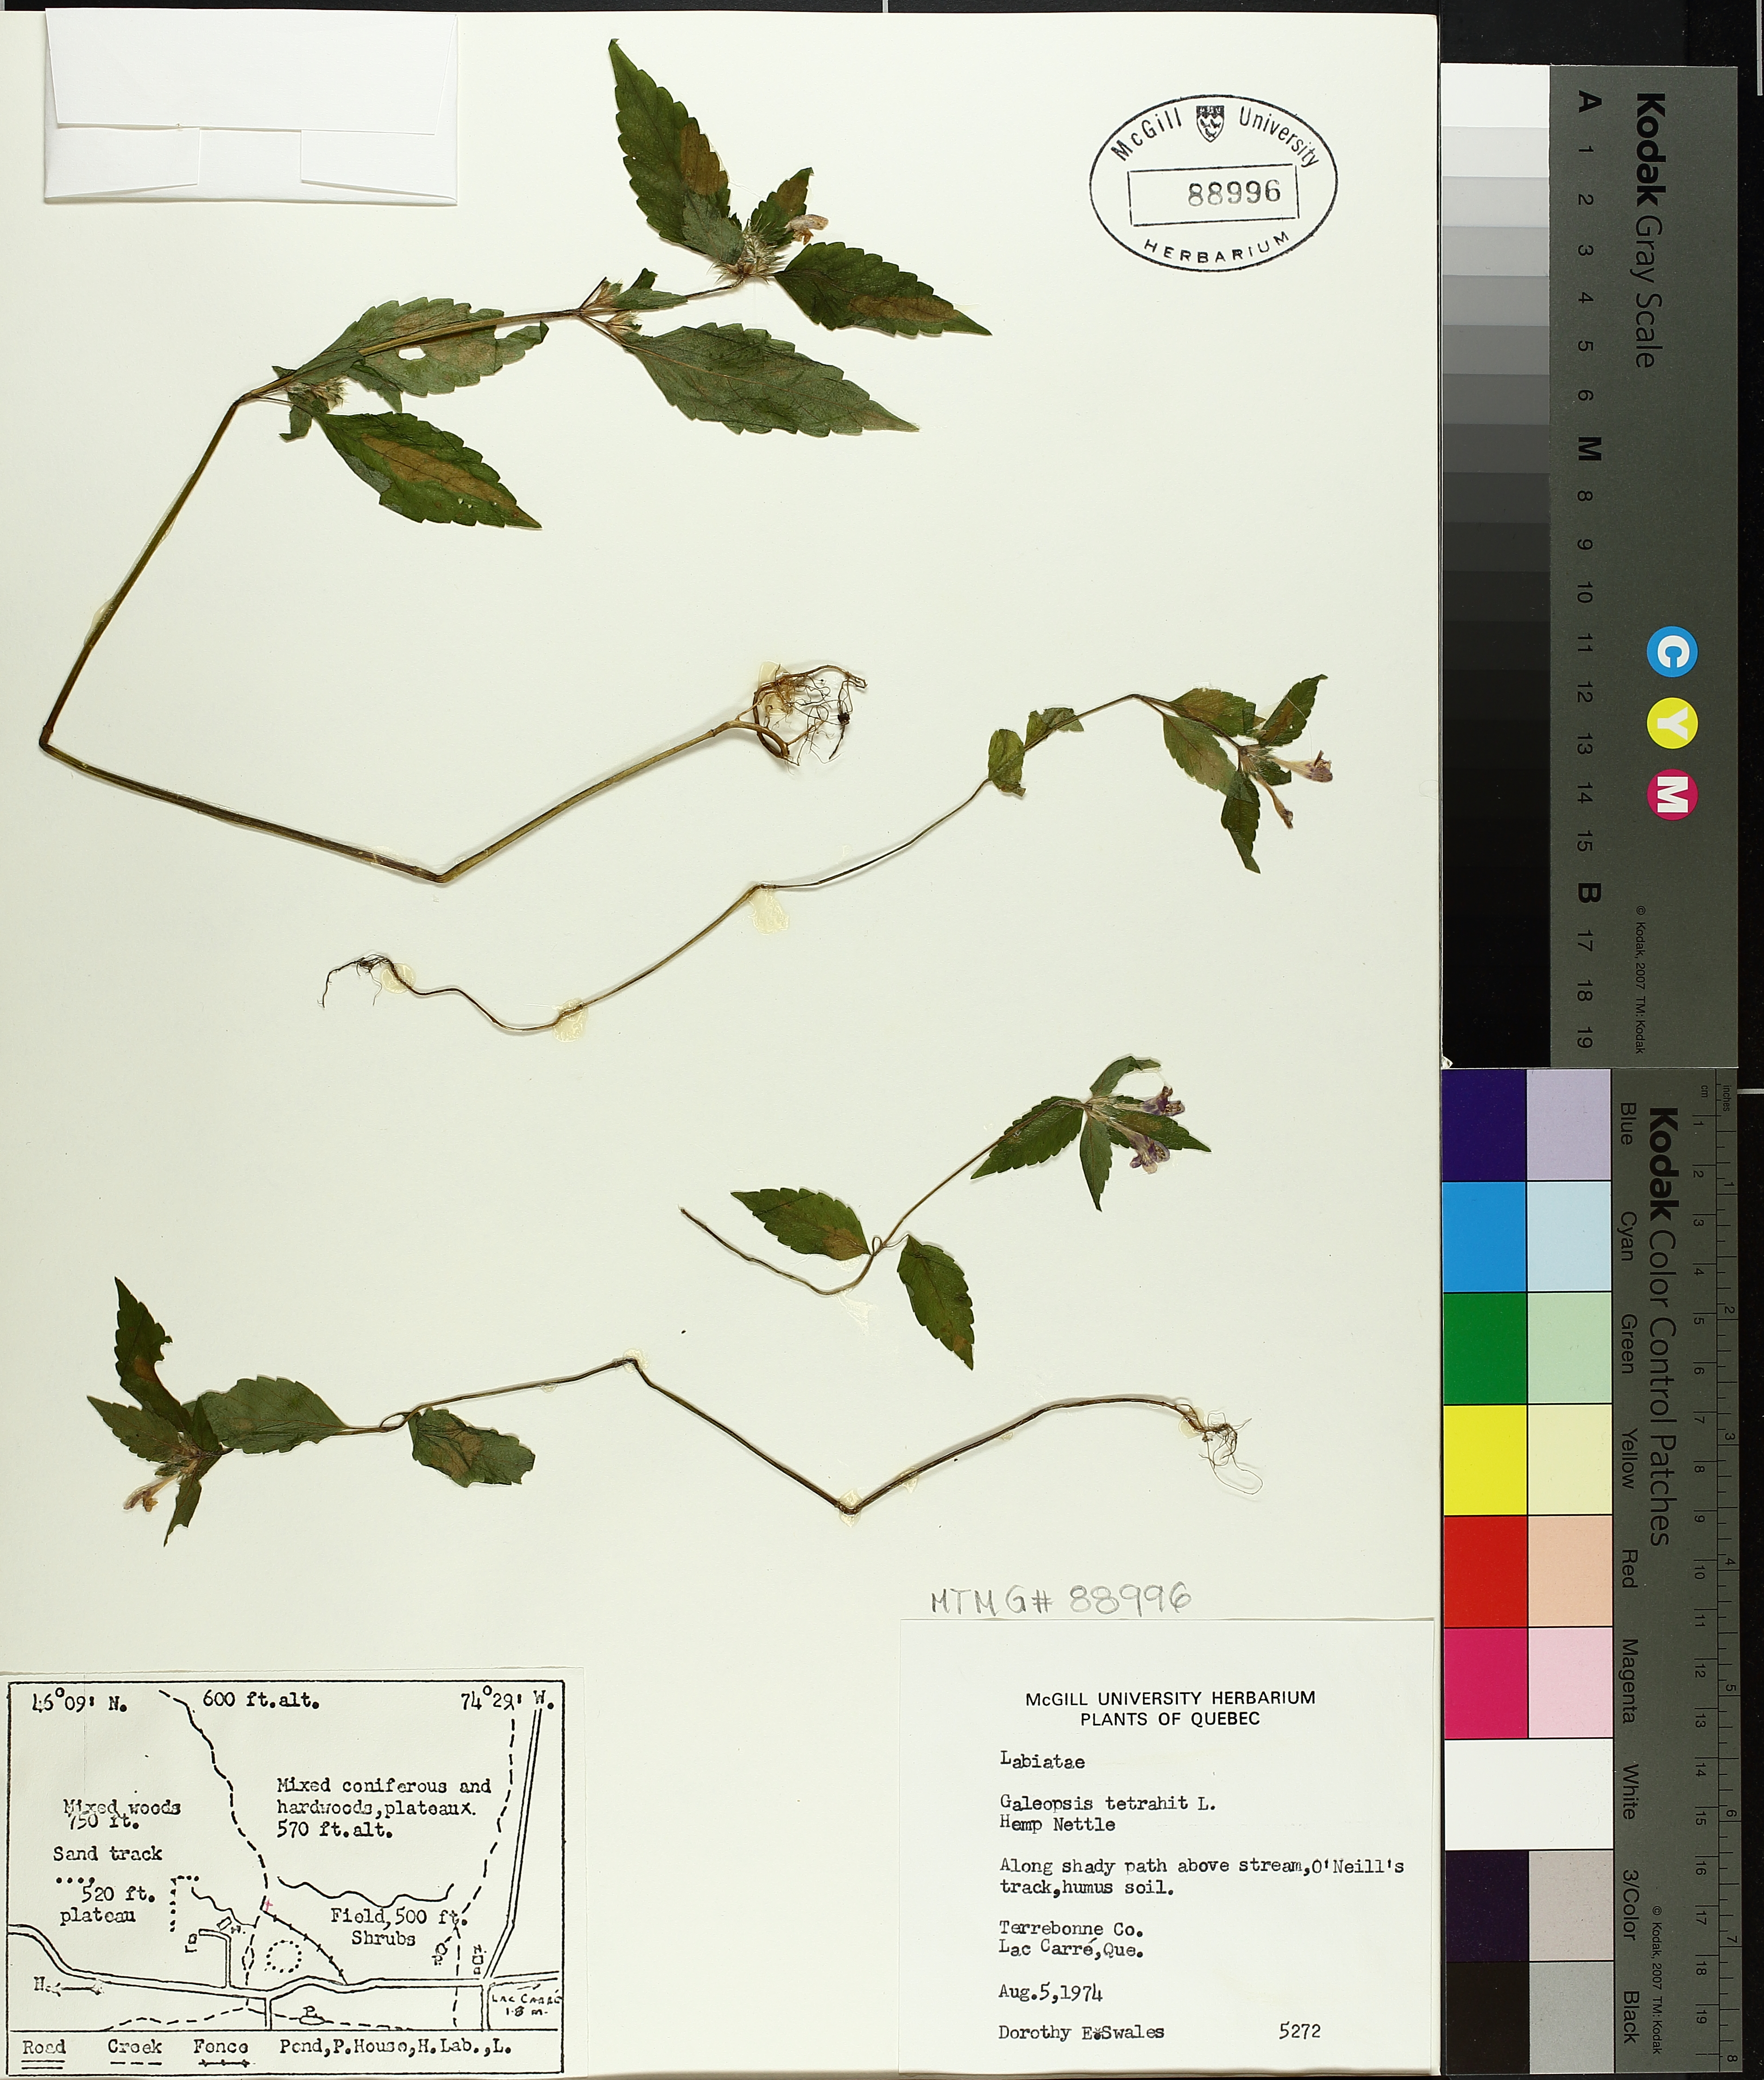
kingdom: Plantae
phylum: Tracheophyta
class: Magnoliopsida
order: Lamiales
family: Lamiaceae
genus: Galeopsis
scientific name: Galeopsis tetrahit
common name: Common hemp-nettle
